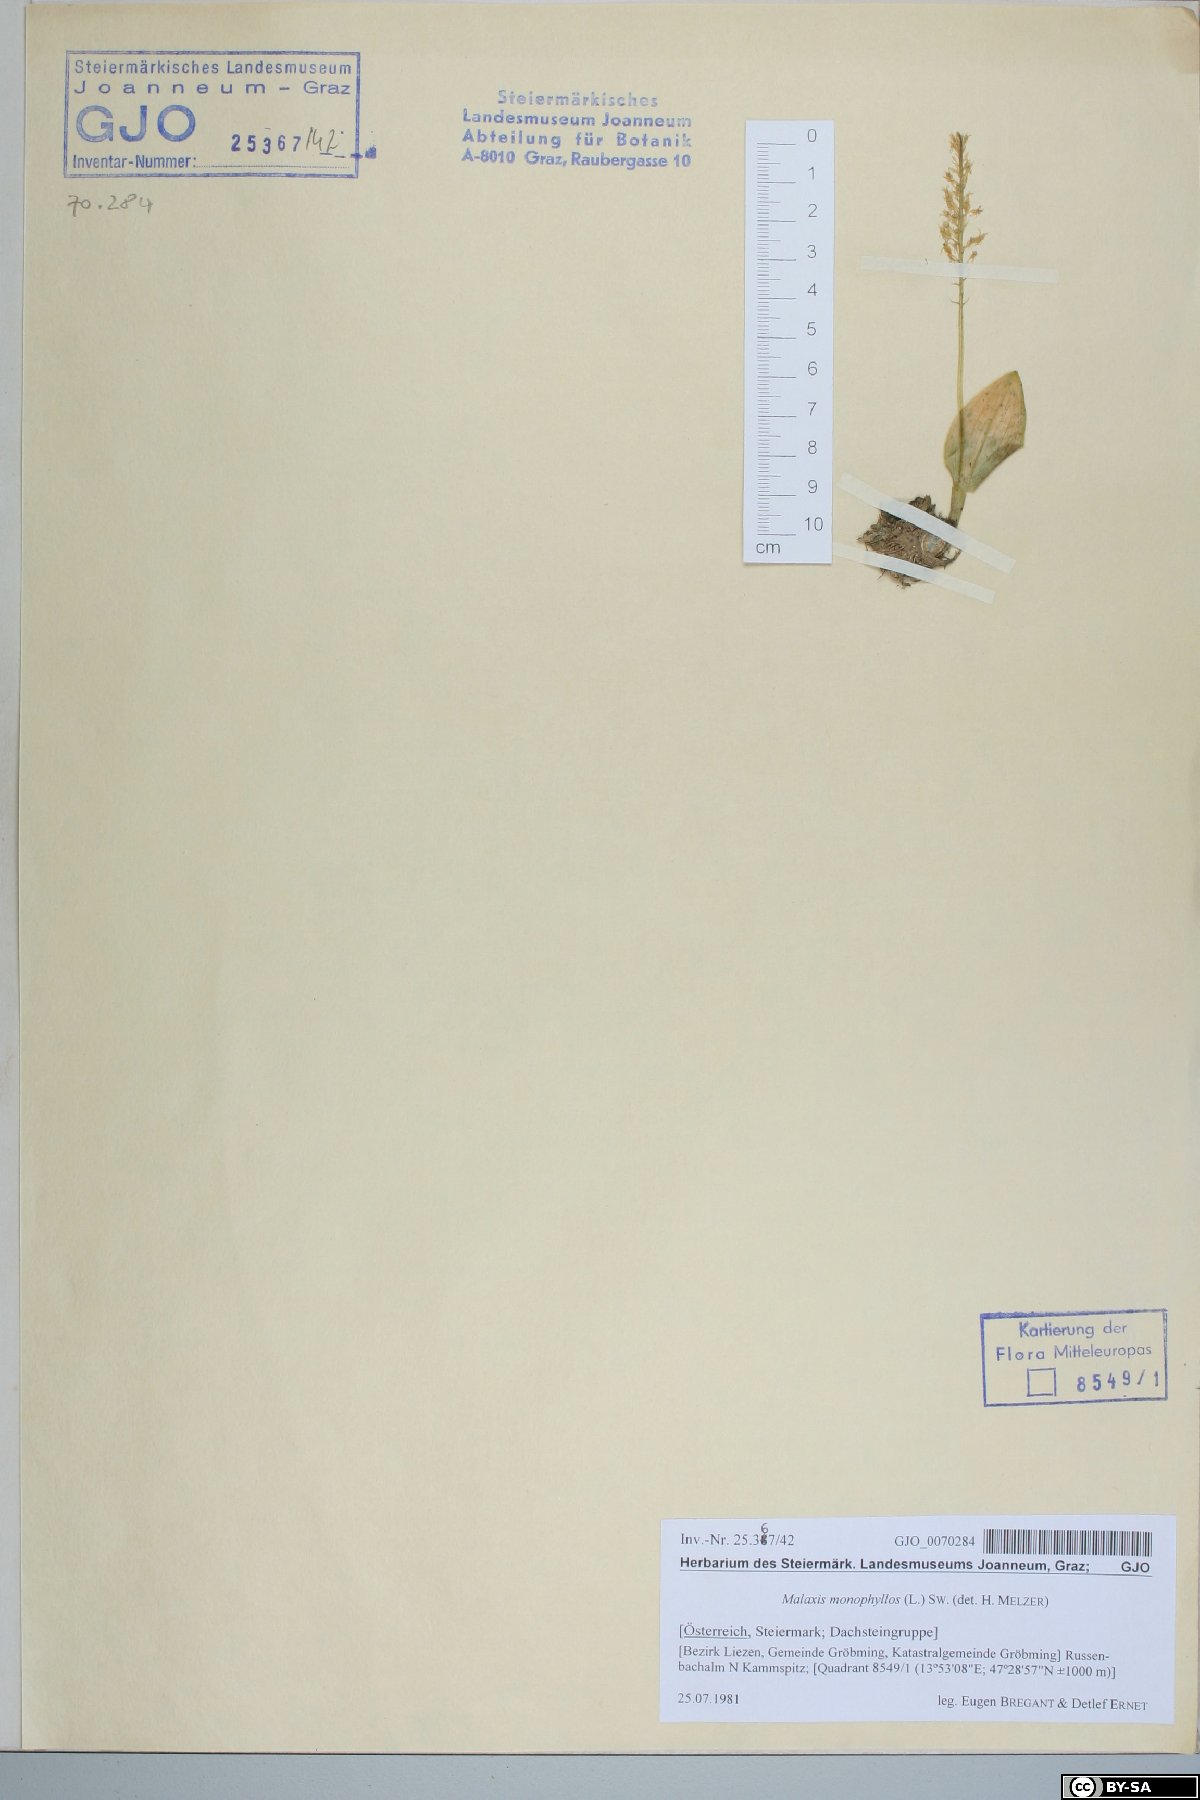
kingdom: Plantae
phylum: Tracheophyta
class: Liliopsida
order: Asparagales
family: Orchidaceae
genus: Malaxis
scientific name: Malaxis monophyllos
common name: White adder's-mouth
